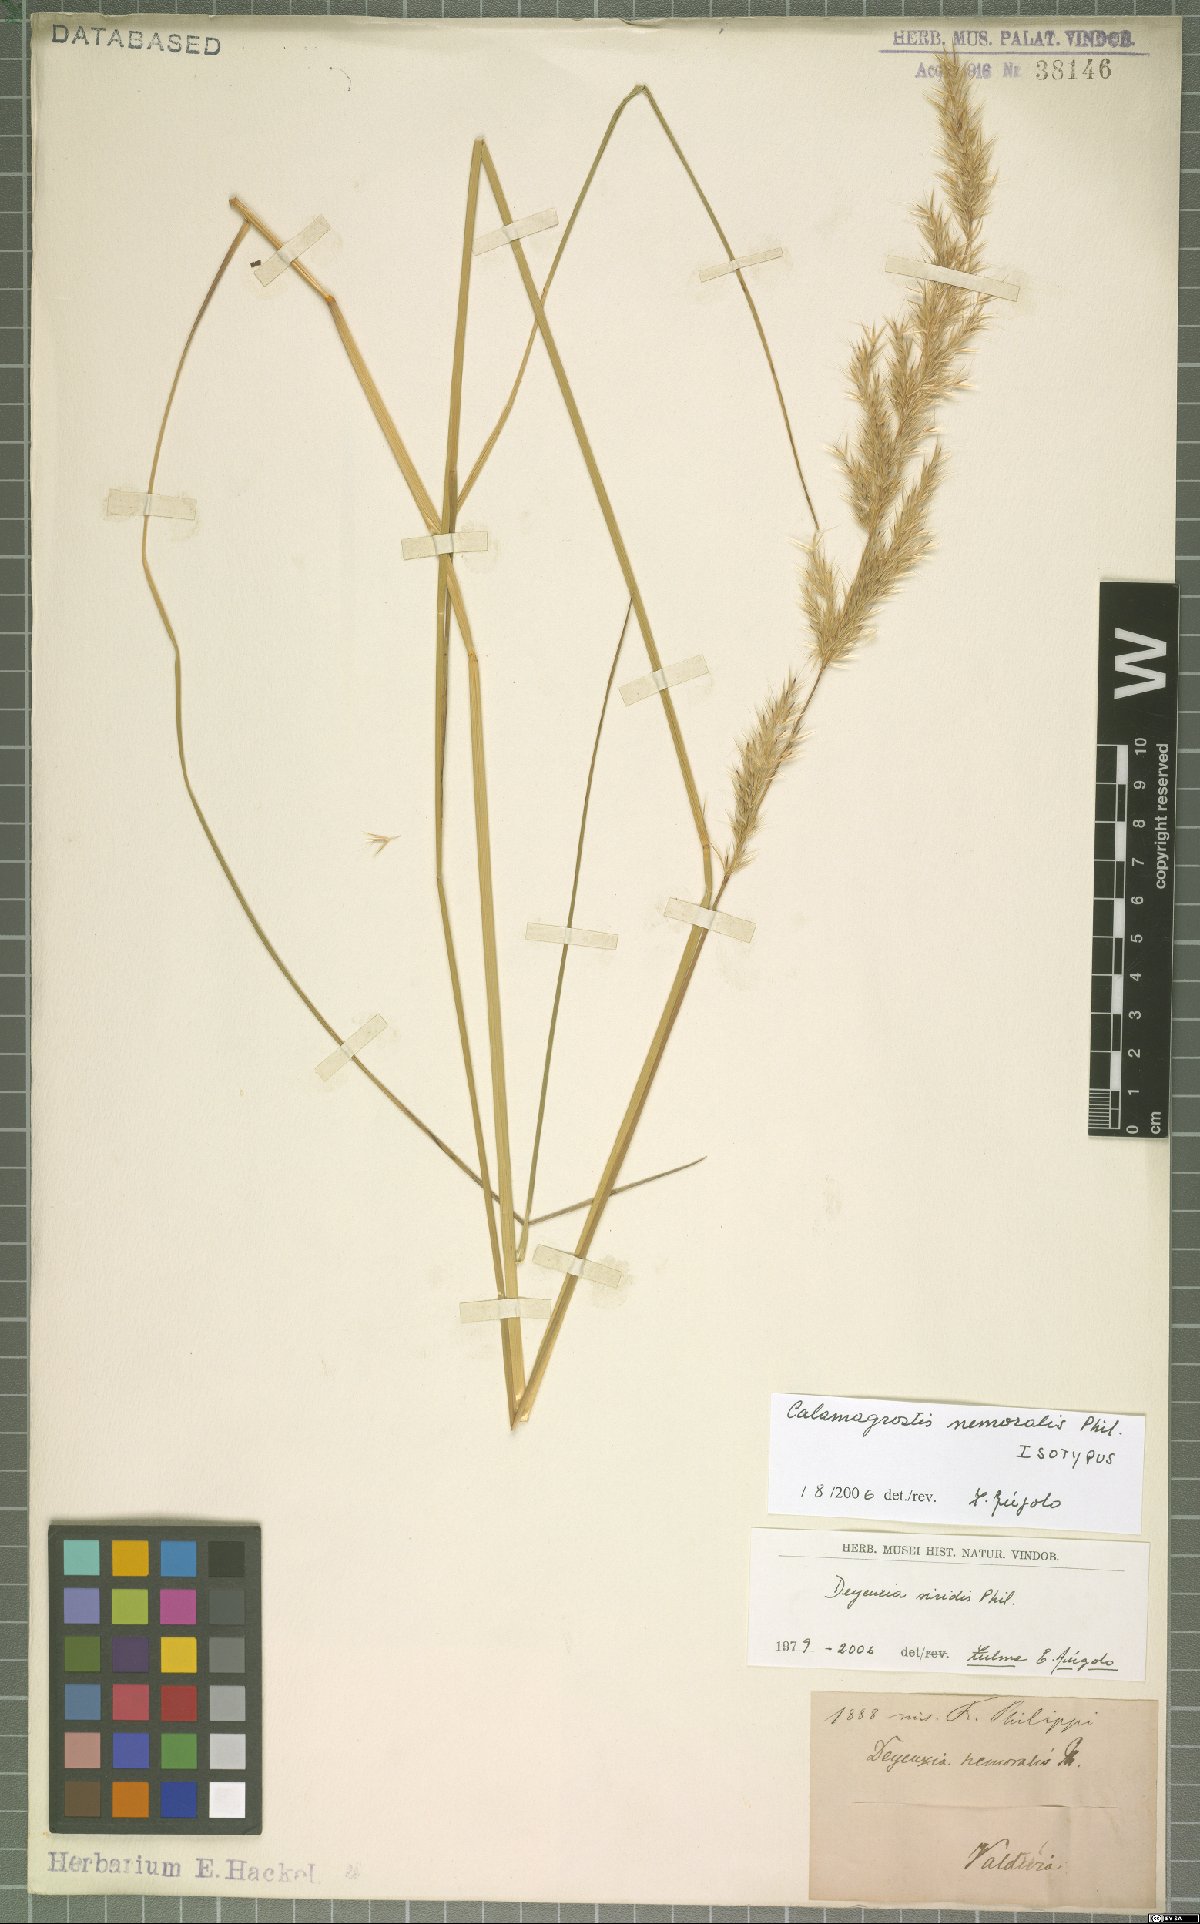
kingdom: Plantae
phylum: Tracheophyta
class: Liliopsida
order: Poales
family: Poaceae
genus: Cinnagrostis
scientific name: Cinnagrostis viridis
